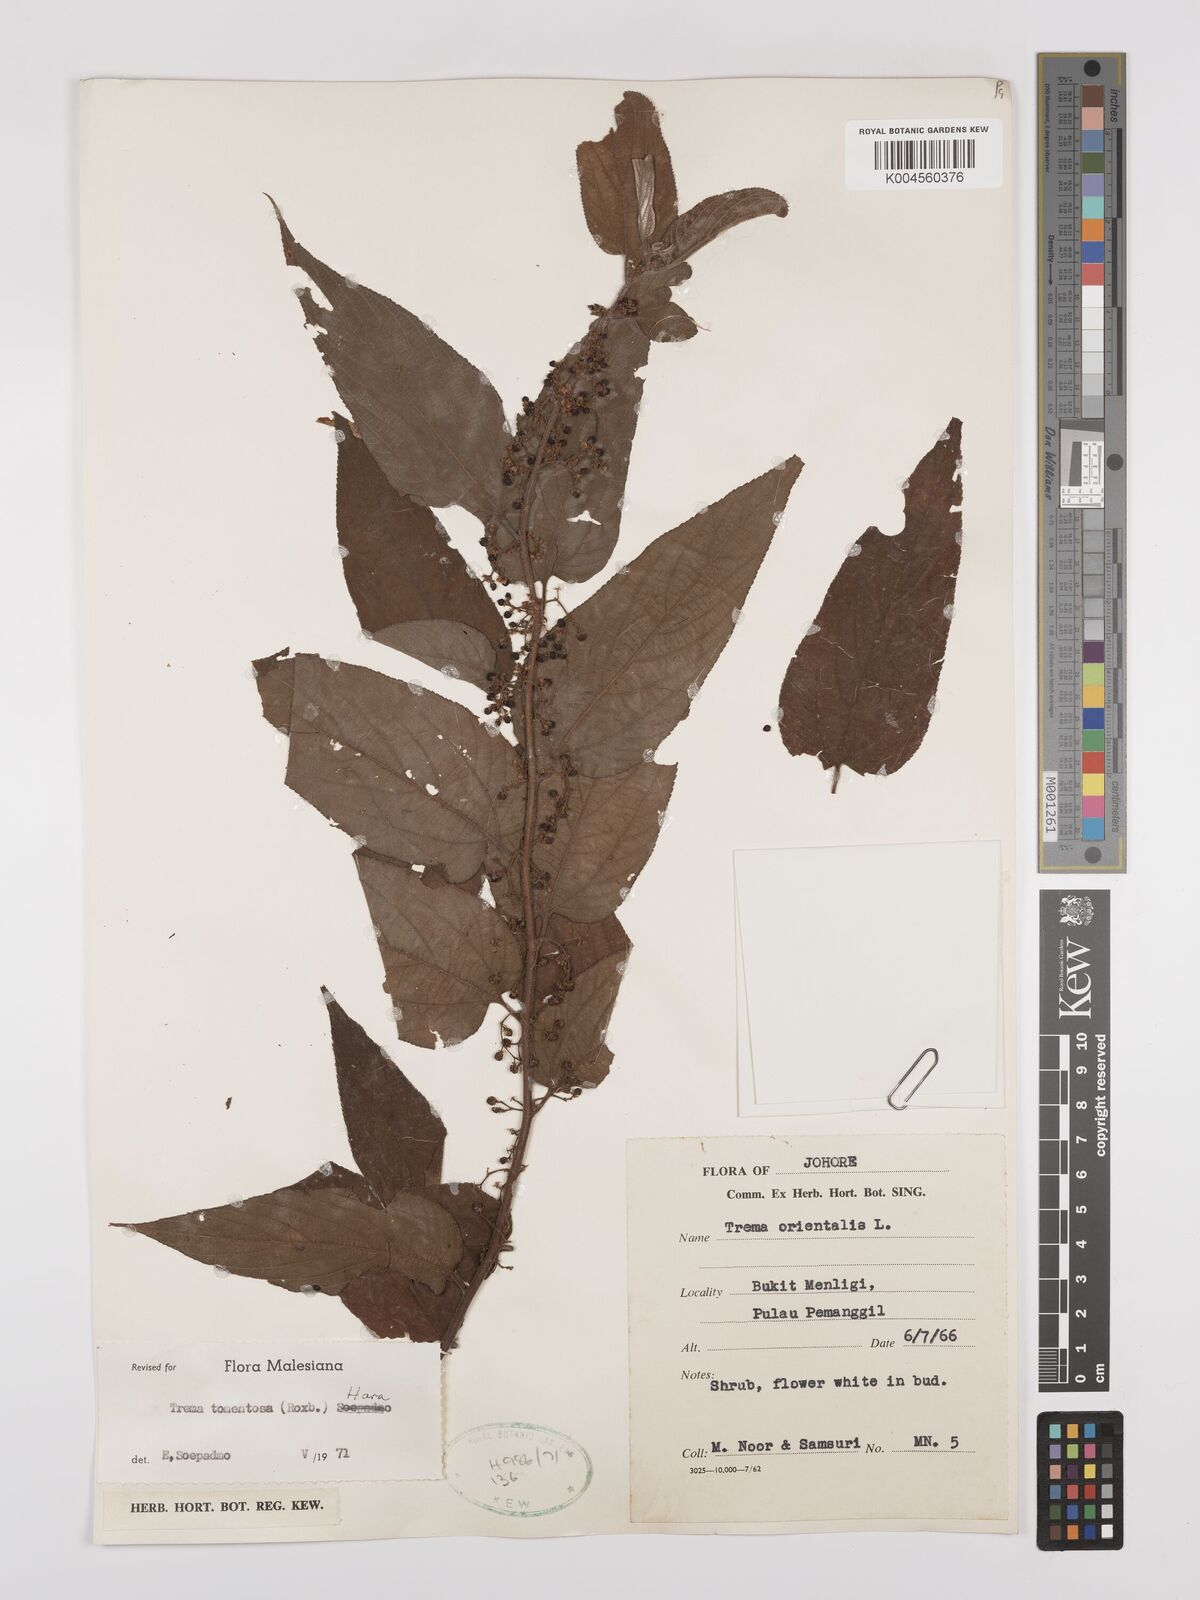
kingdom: Plantae
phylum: Tracheophyta
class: Magnoliopsida
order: Rosales
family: Cannabaceae
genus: Trema
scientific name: Trema tomentosum
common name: Peach-leaf-poisonbush
